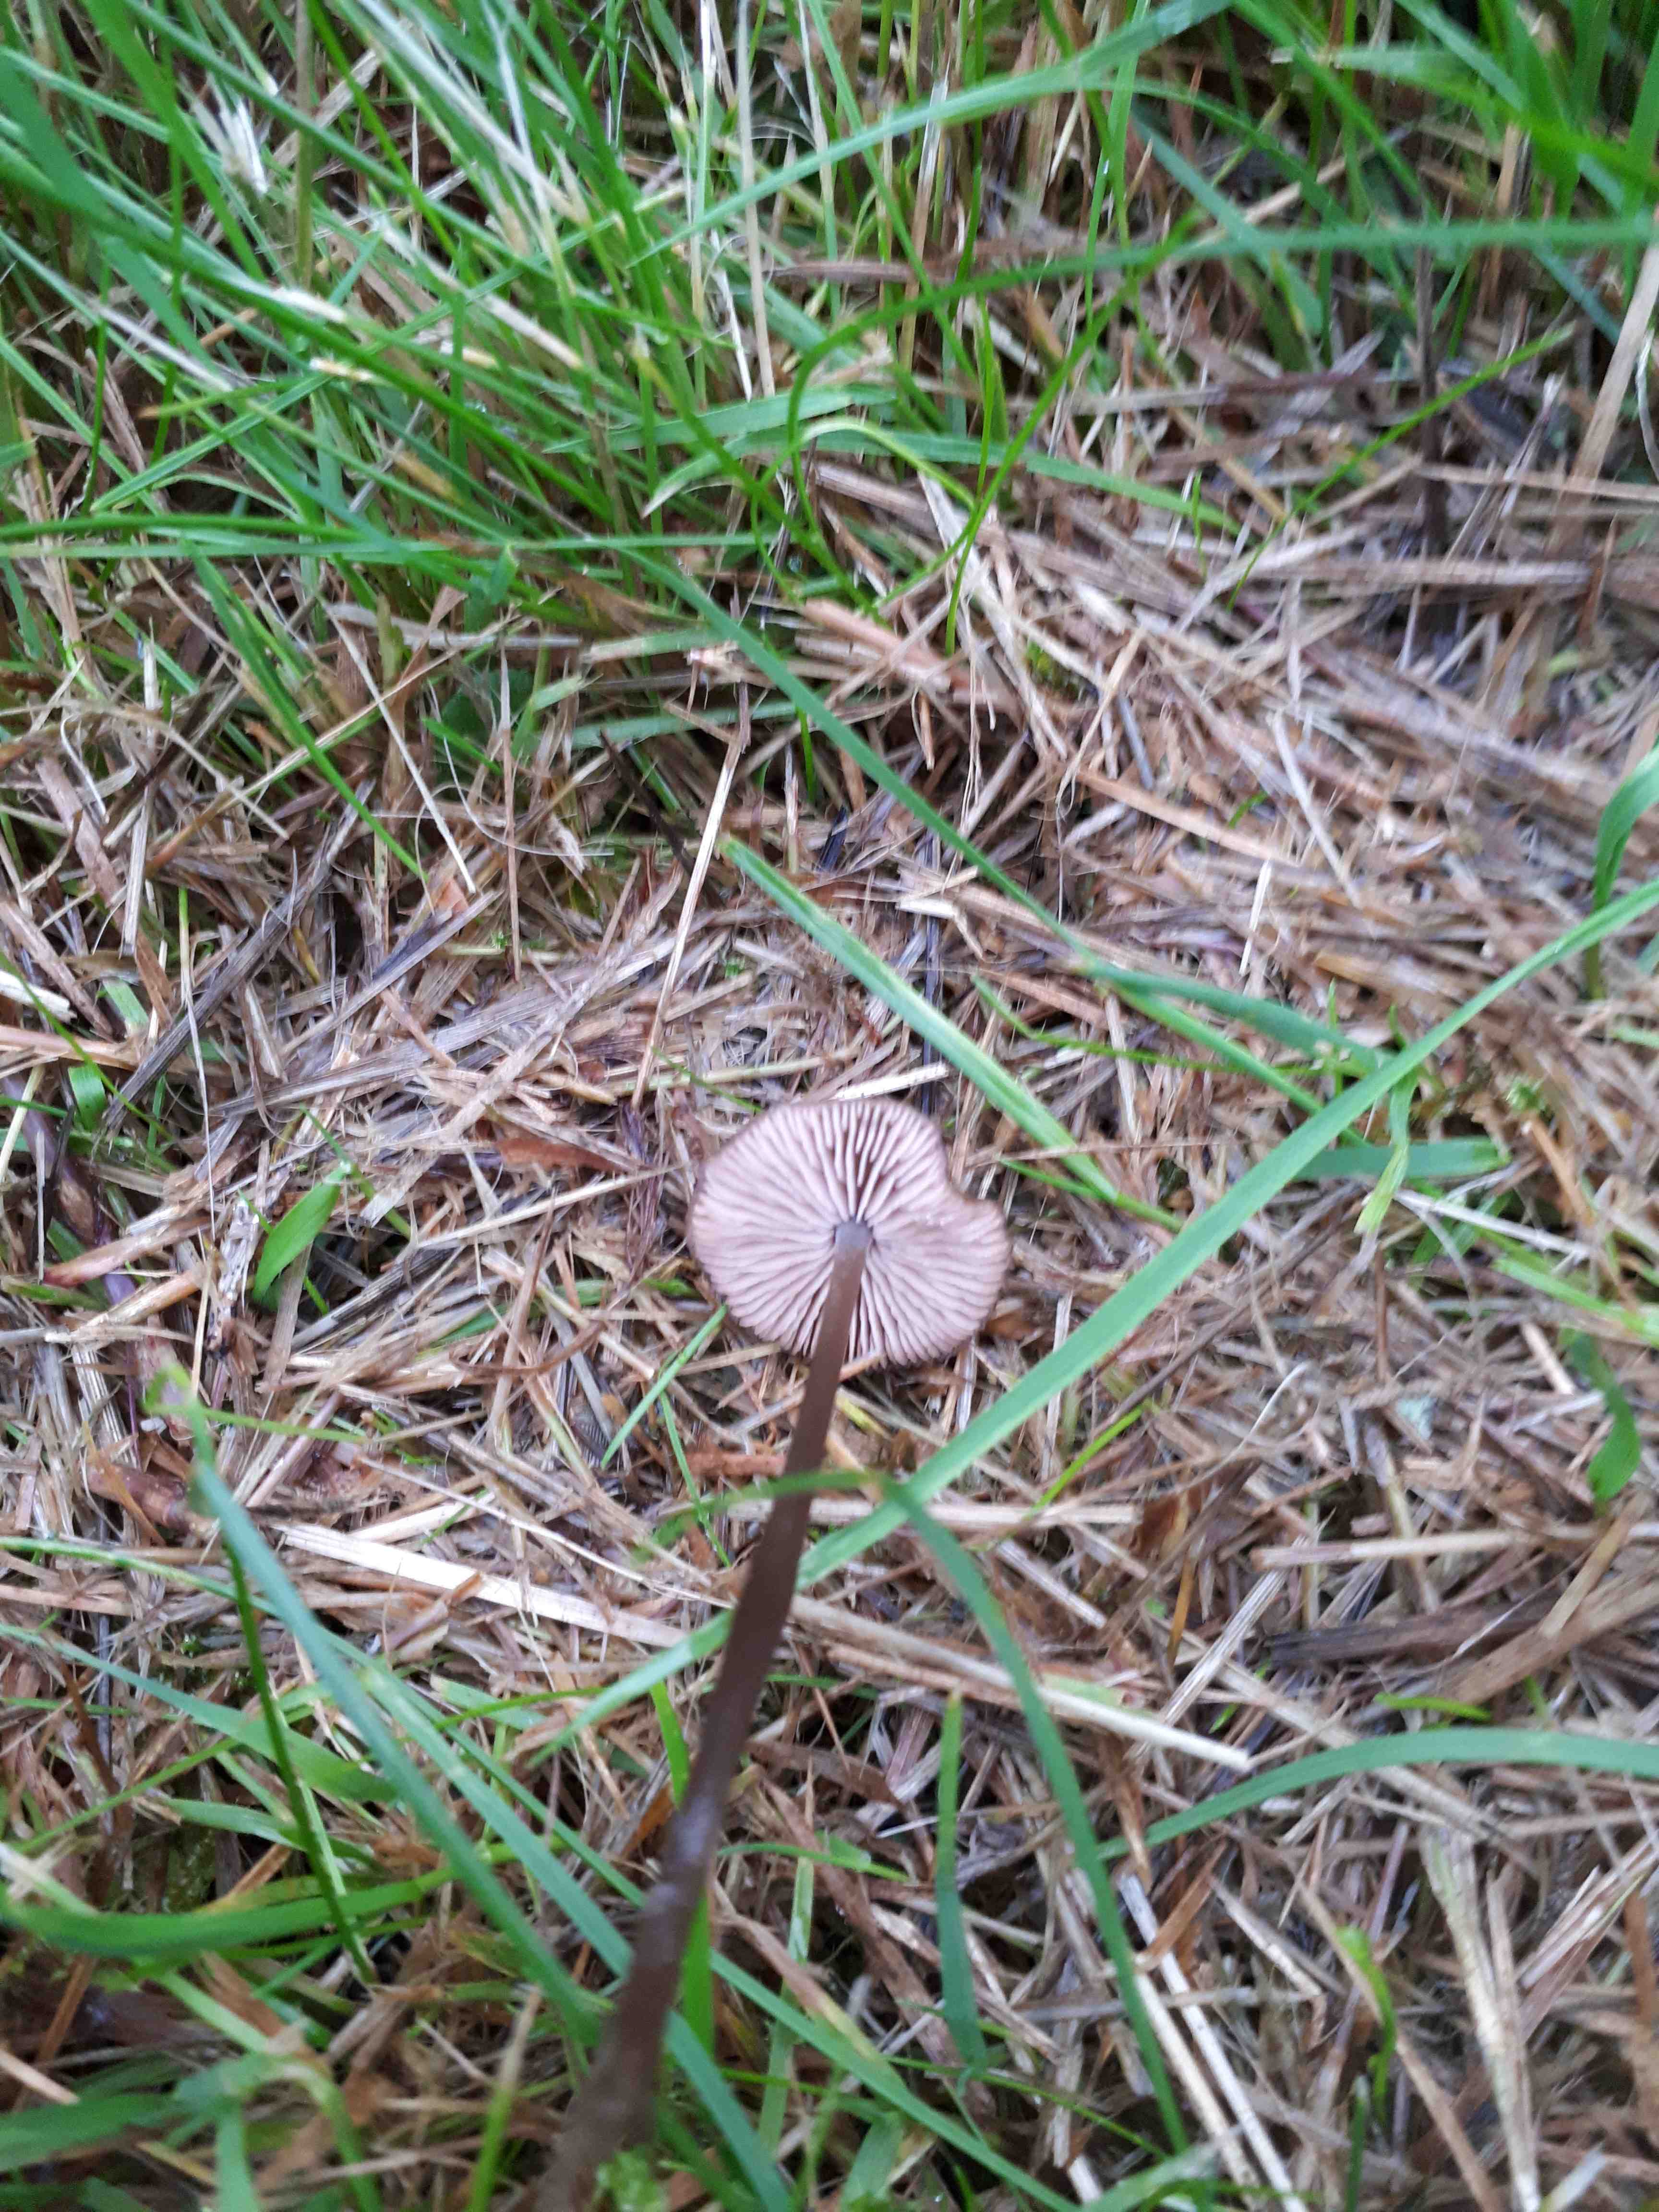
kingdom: Fungi
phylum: Basidiomycota
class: Agaricomycetes
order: Agaricales
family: Entolomataceae
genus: Entoloma
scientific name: Entoloma
